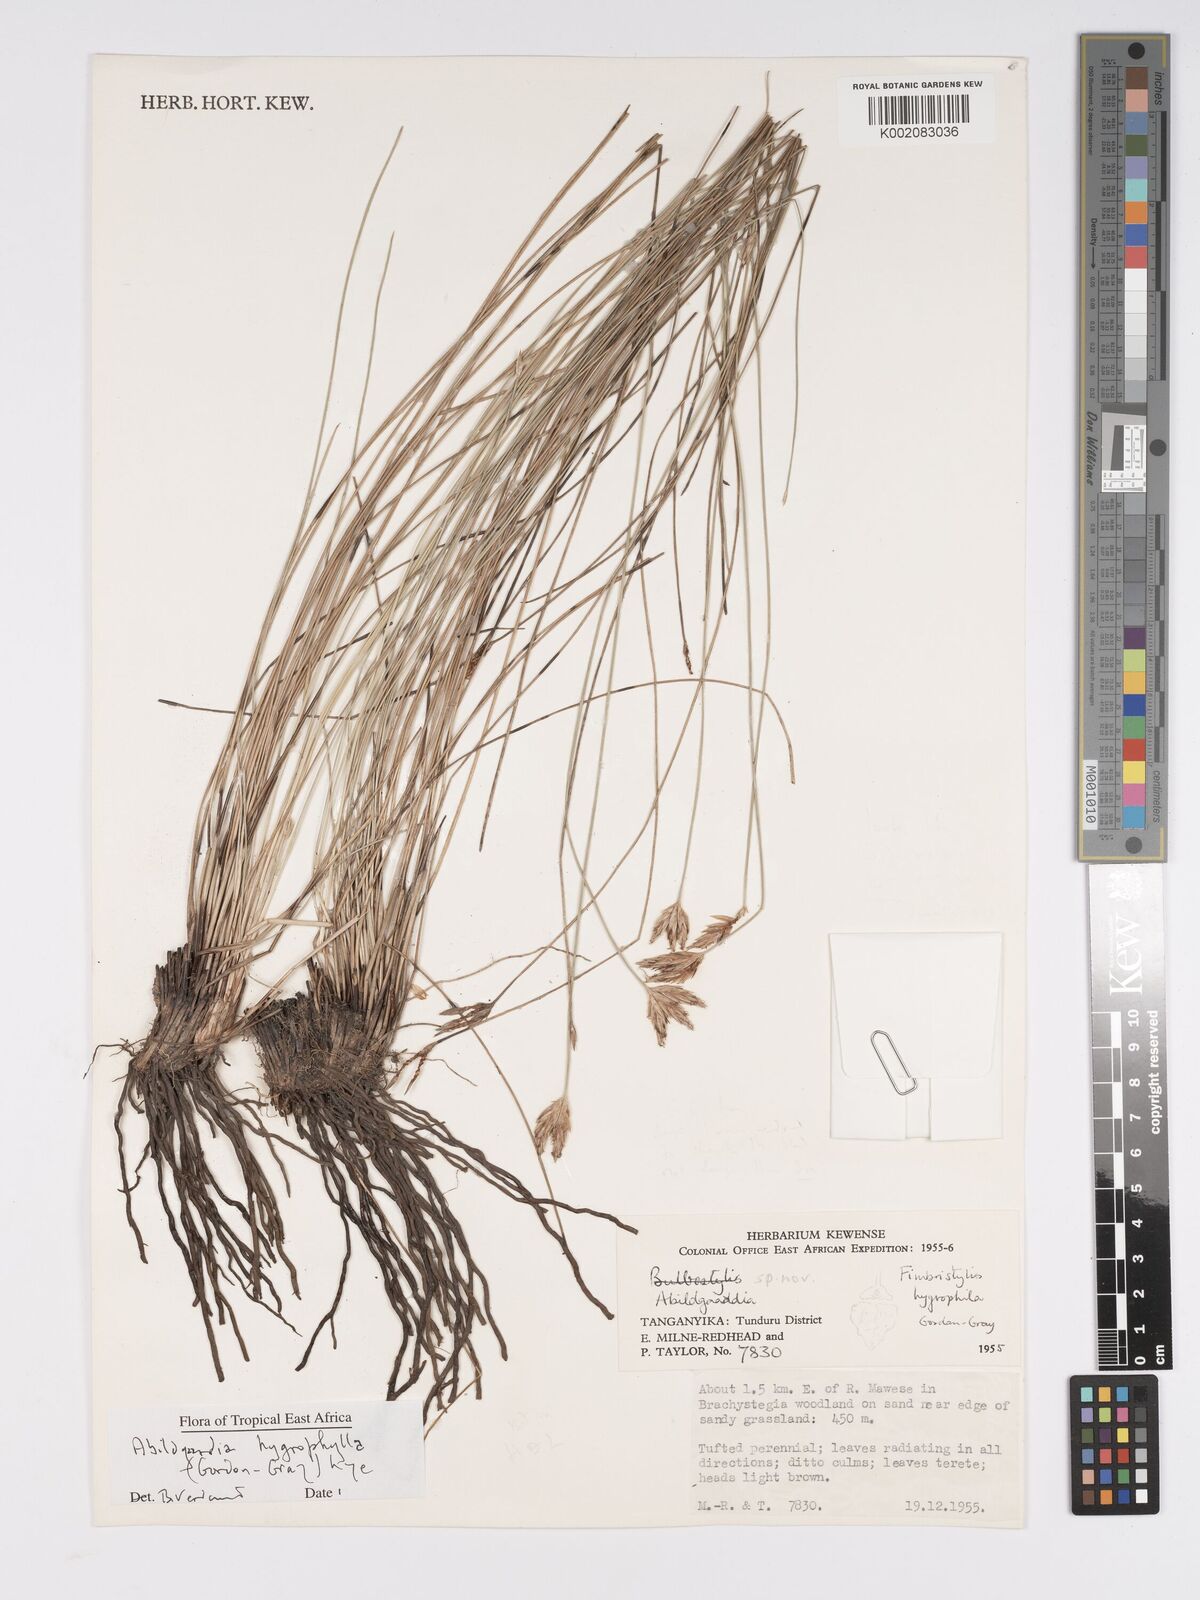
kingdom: Plantae
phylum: Tracheophyta
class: Liliopsida
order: Poales
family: Cyperaceae
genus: Bulbostylis
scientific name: Bulbostylis
